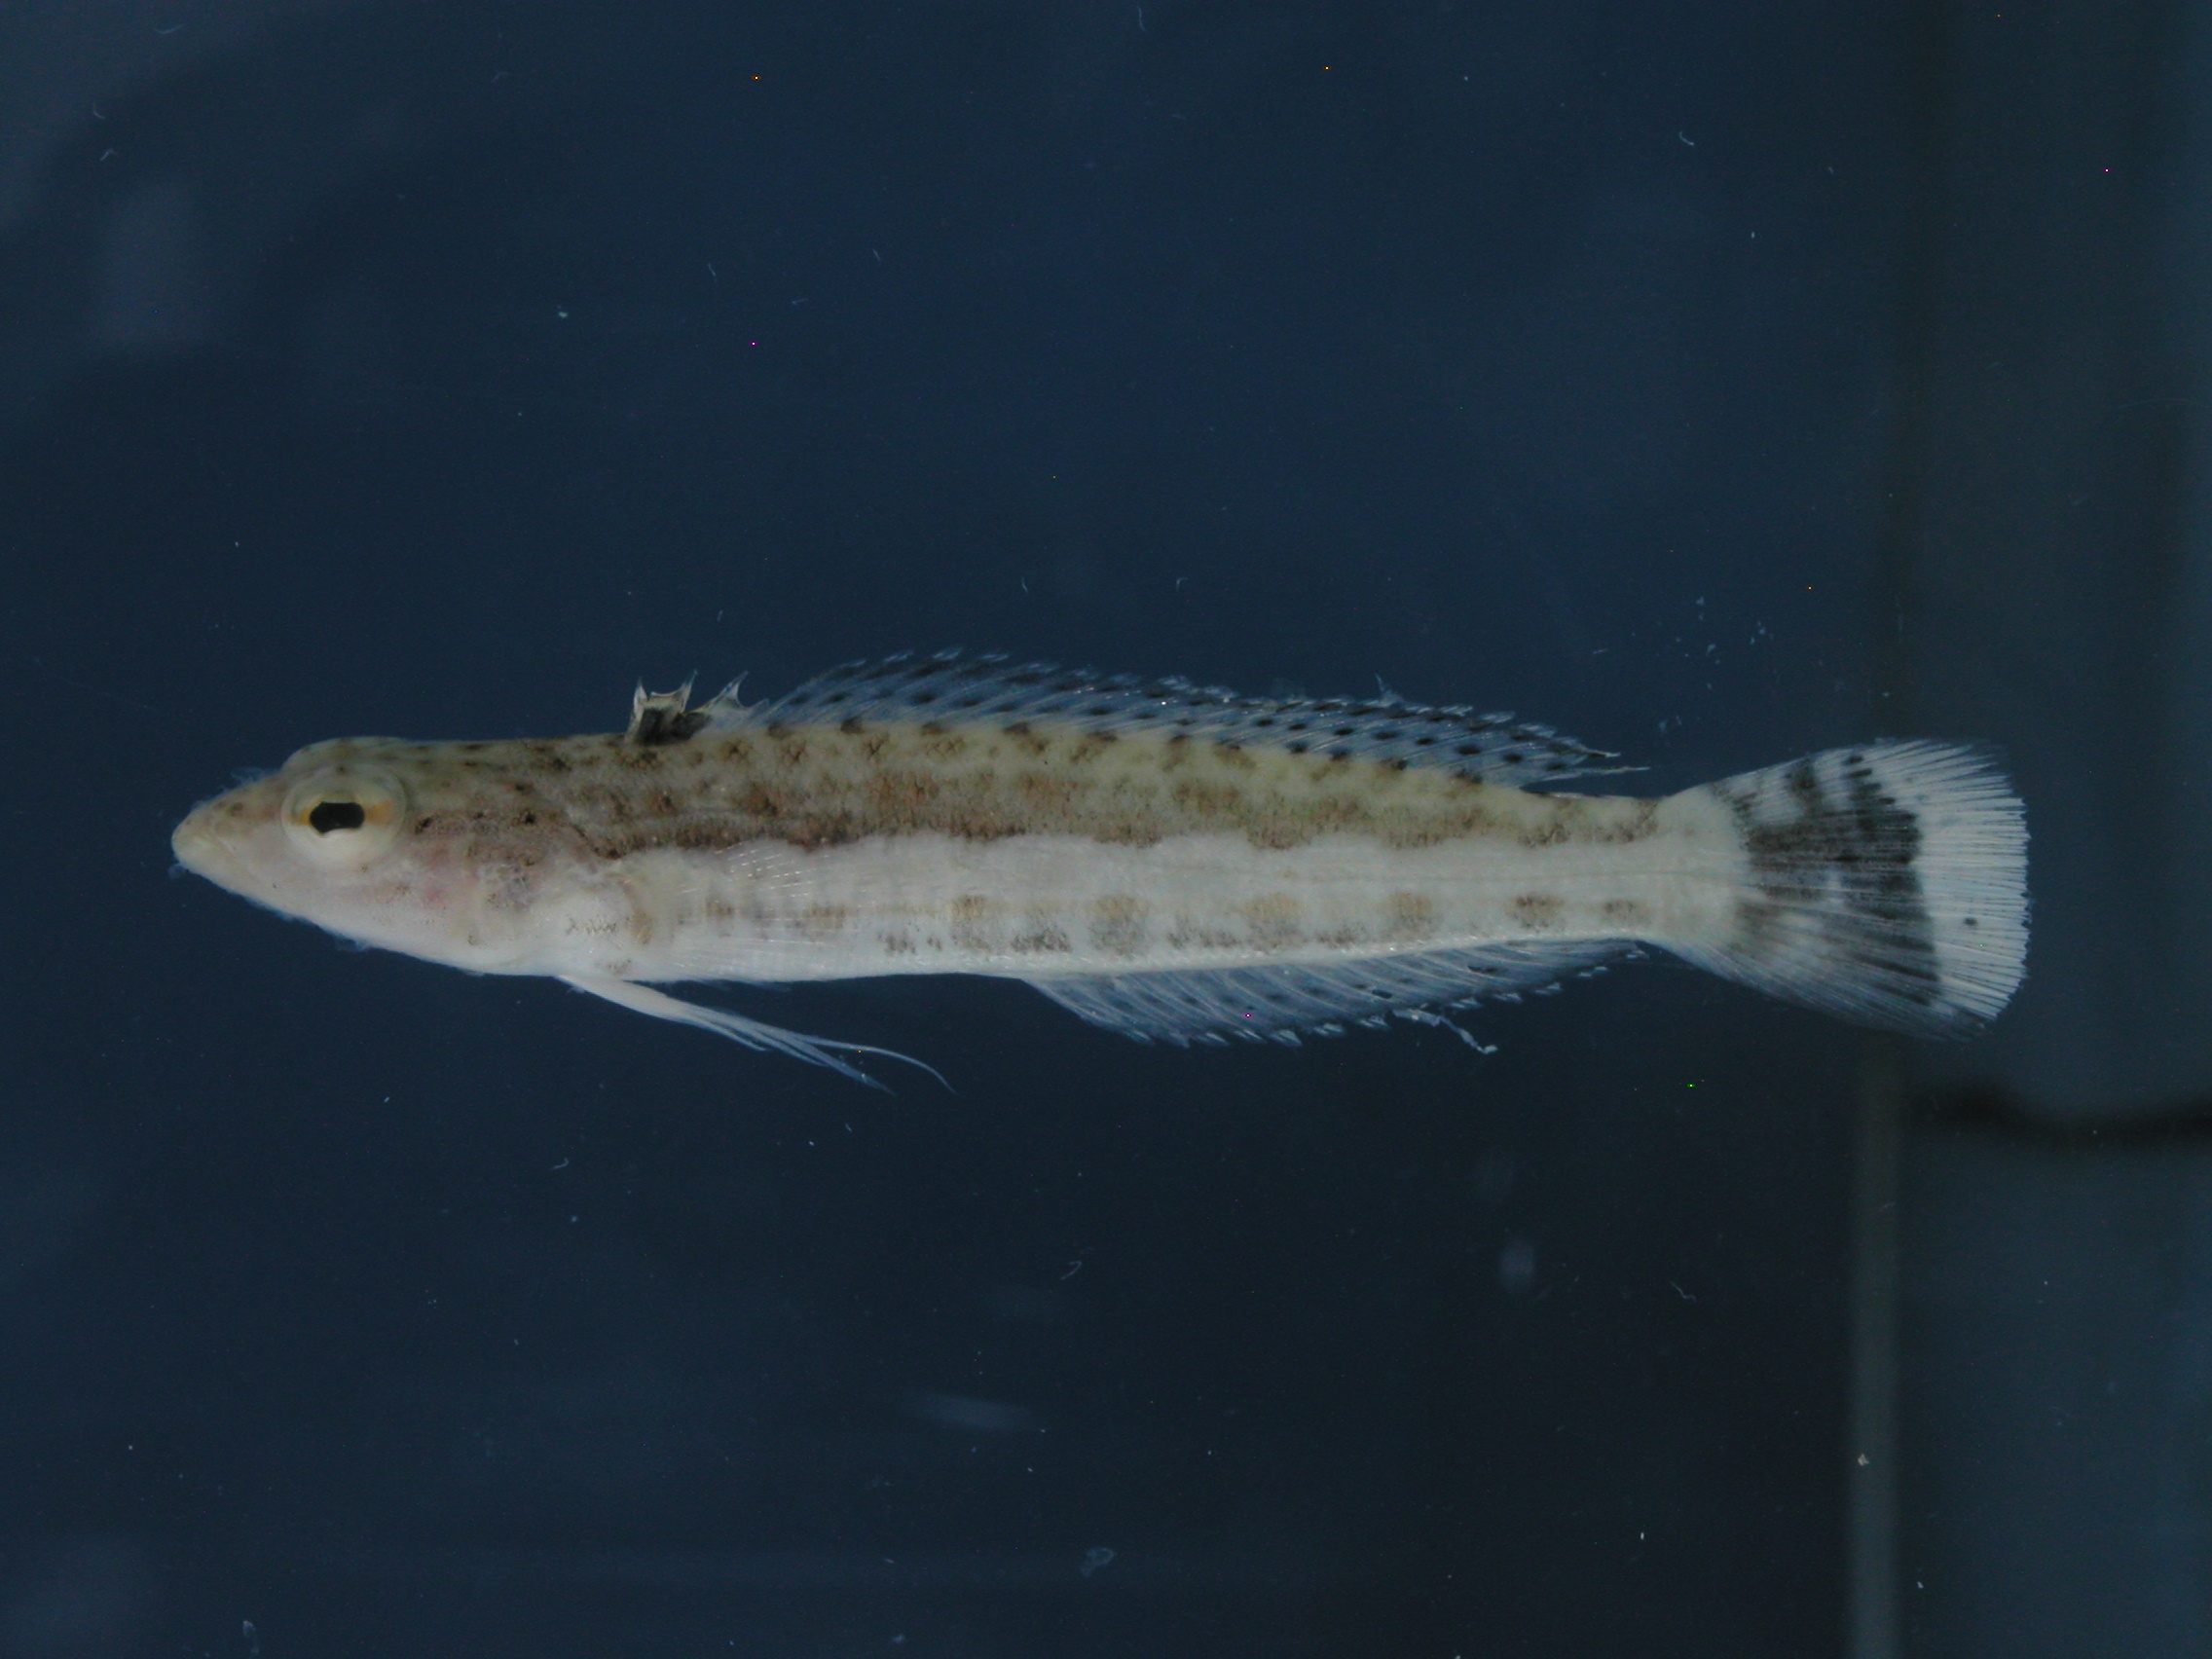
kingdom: Animalia
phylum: Chordata
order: Perciformes
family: Pinguipedidae
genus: Parapercis
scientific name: Parapercis hexophtalma
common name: Speckled sandperch
